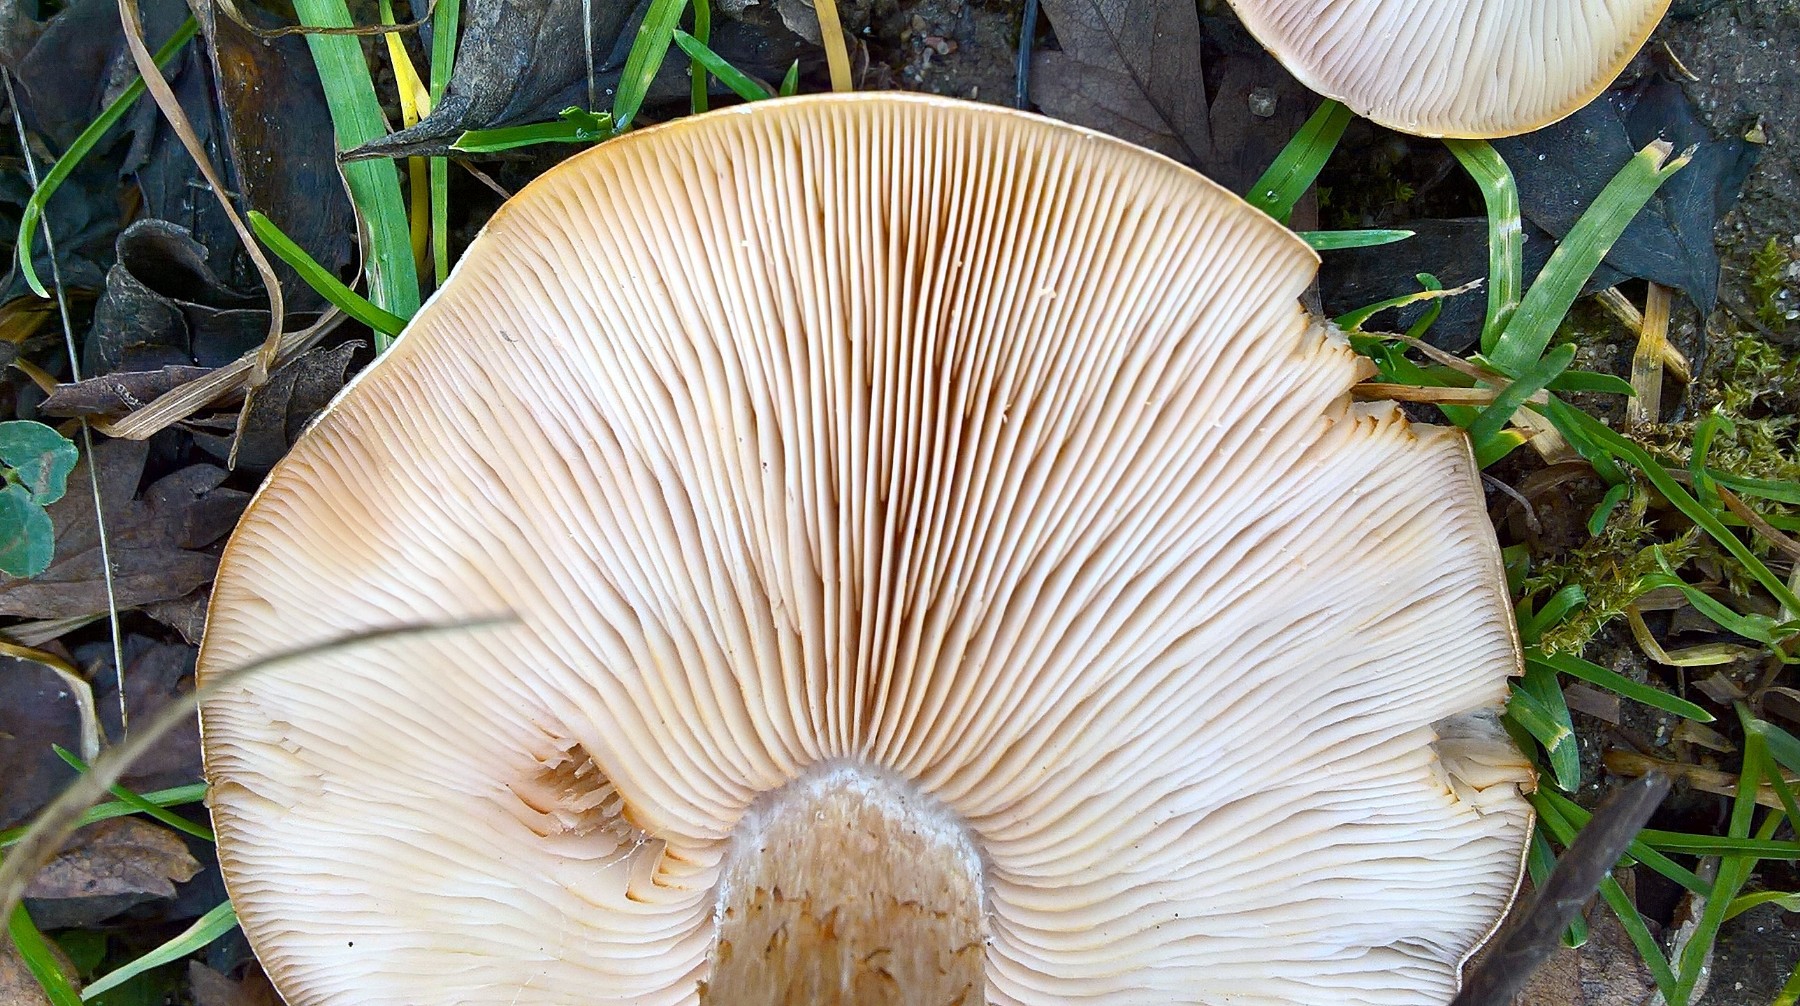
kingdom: Fungi
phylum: Basidiomycota
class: Agaricomycetes
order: Agaricales
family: Tricholomataceae
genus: Lepista
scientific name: Lepista personata
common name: bleg hekseringshat
